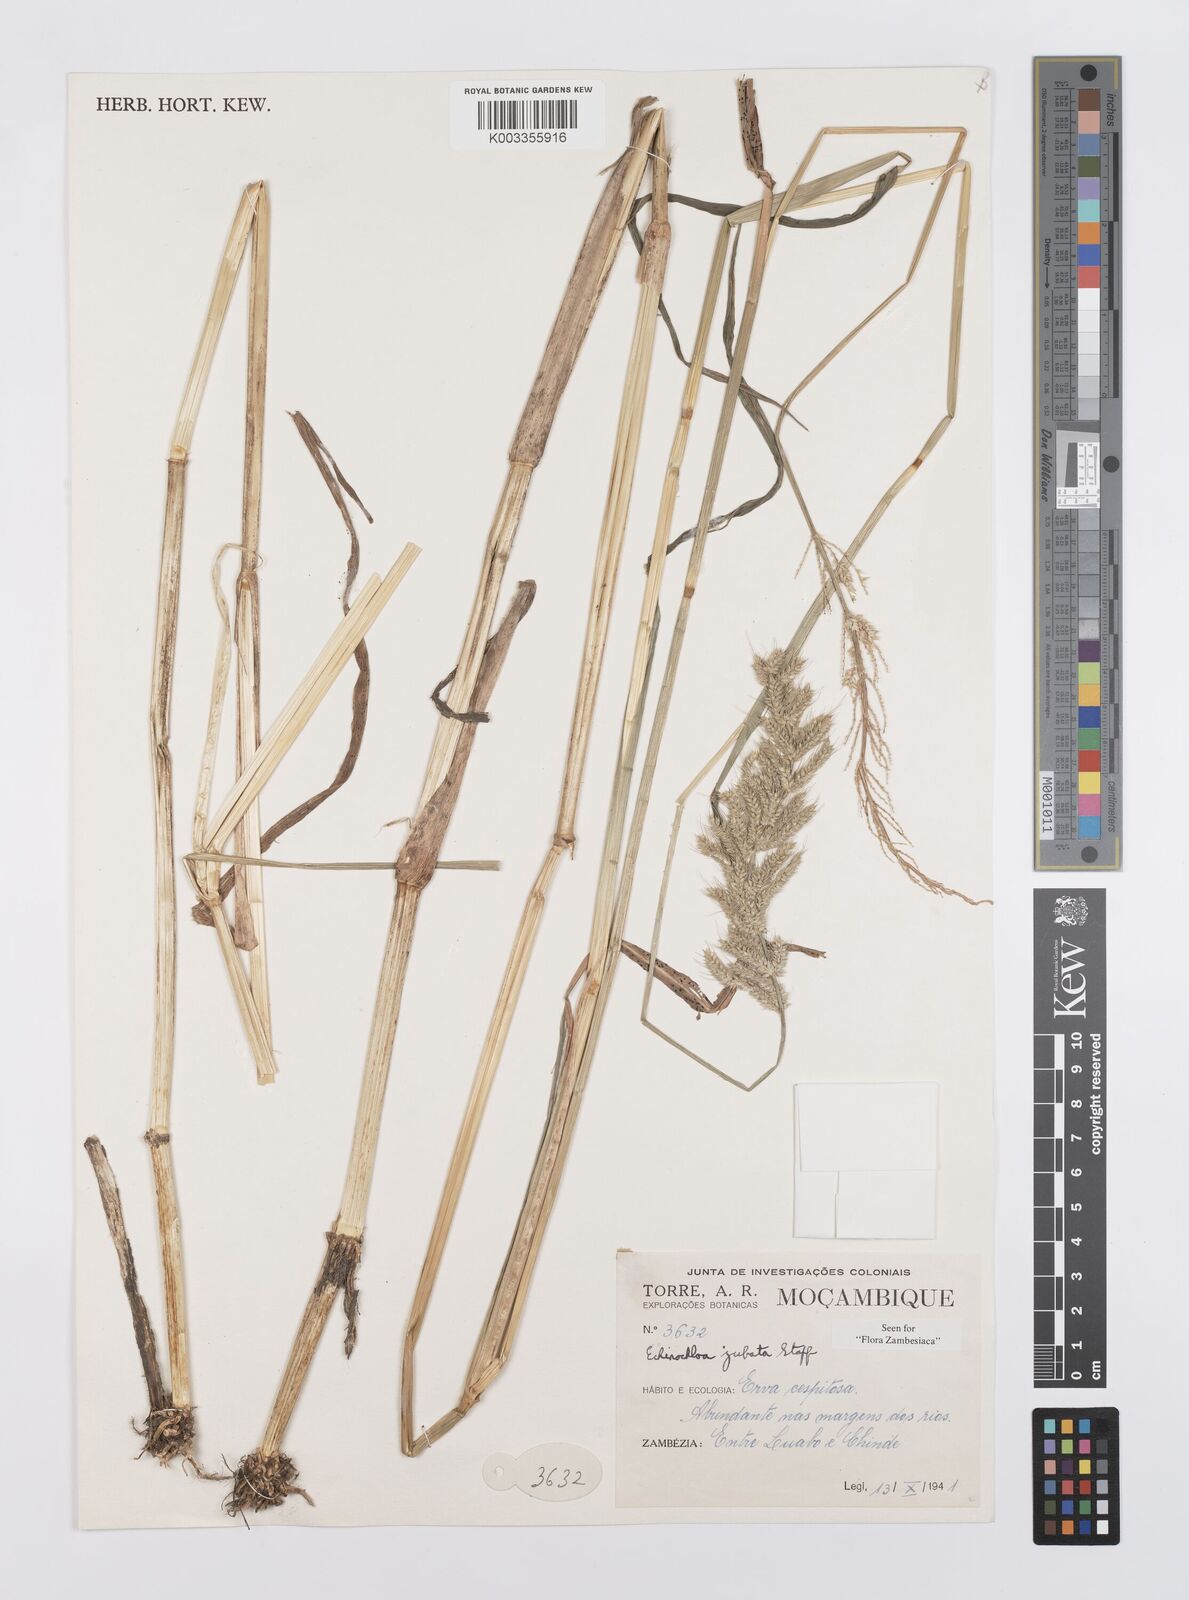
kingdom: Plantae
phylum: Tracheophyta
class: Liliopsida
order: Poales
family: Poaceae
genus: Echinochloa
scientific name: Echinochloa jubata
